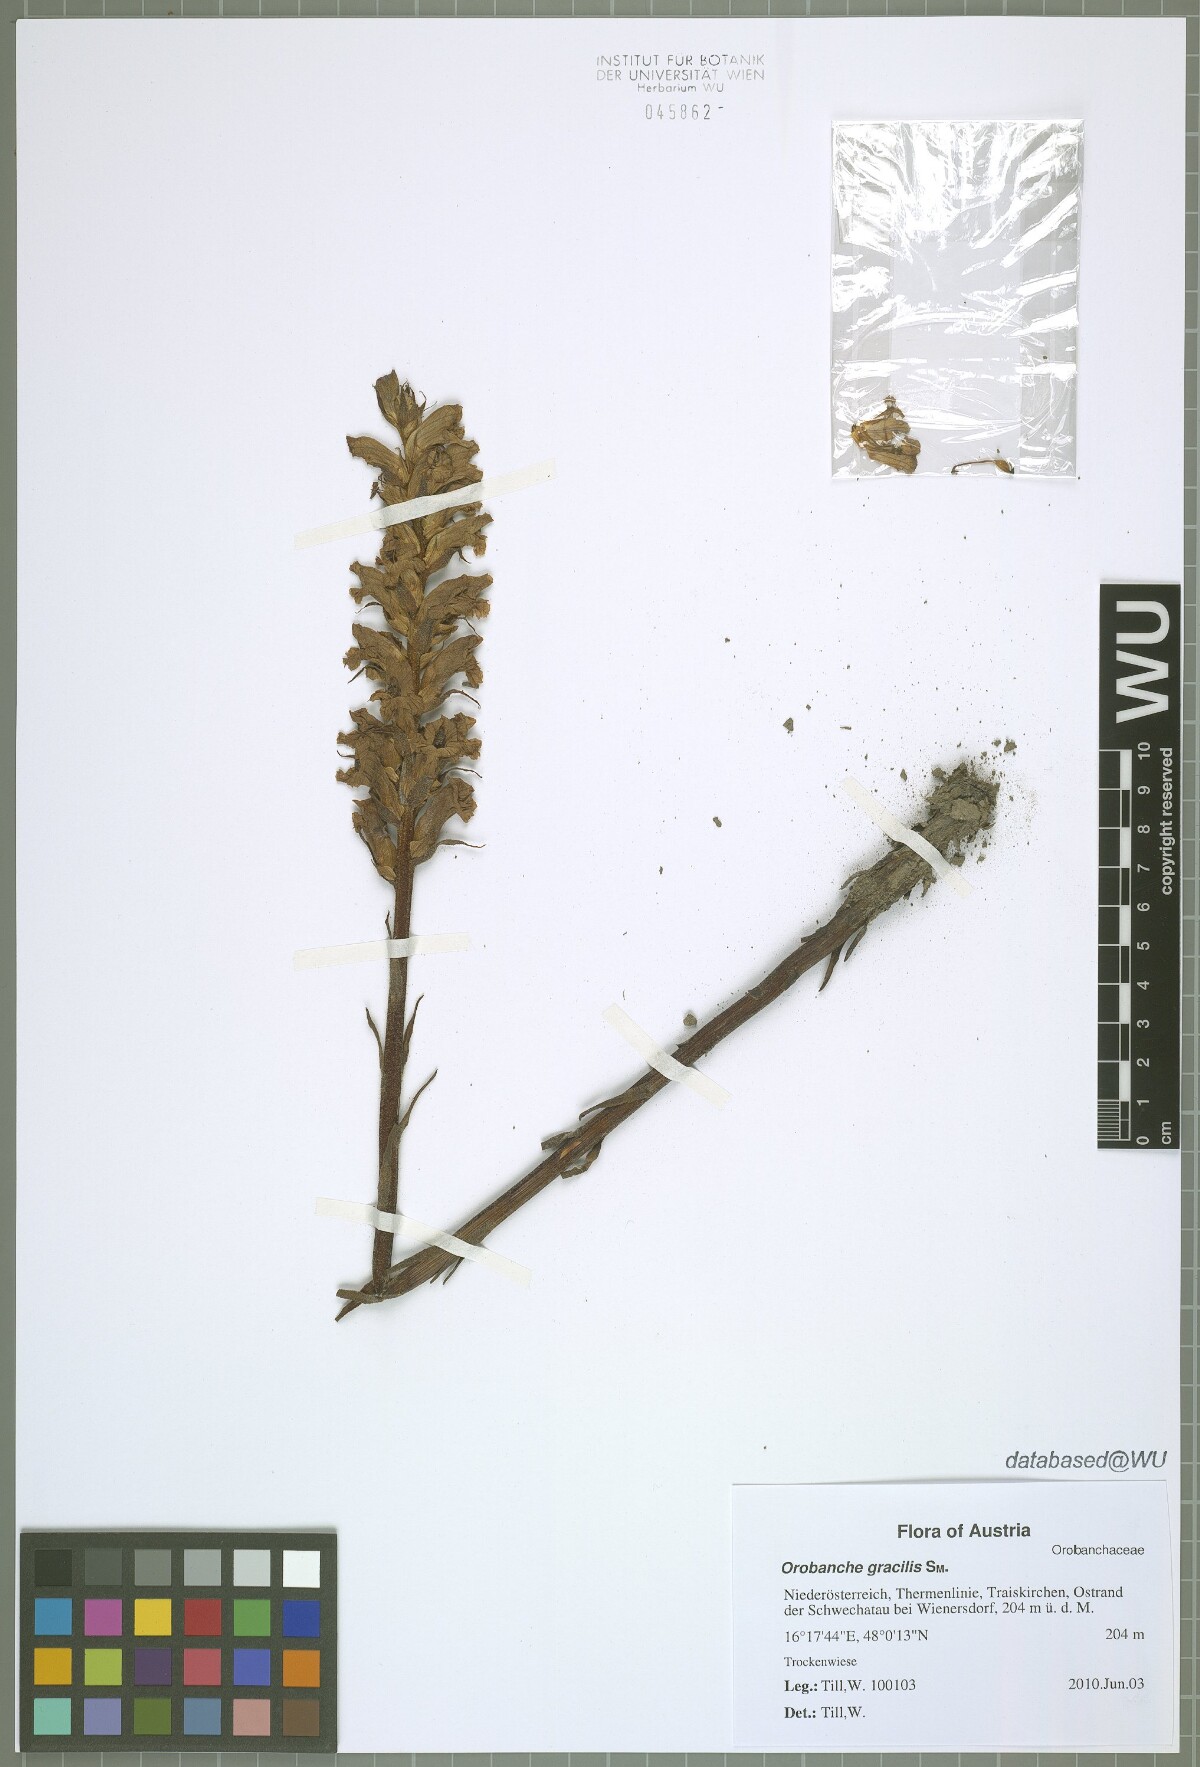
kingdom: Plantae
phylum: Tracheophyta
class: Magnoliopsida
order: Lamiales
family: Orobanchaceae
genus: Orobanche
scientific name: Orobanche gracilis
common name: Slender broomrape
